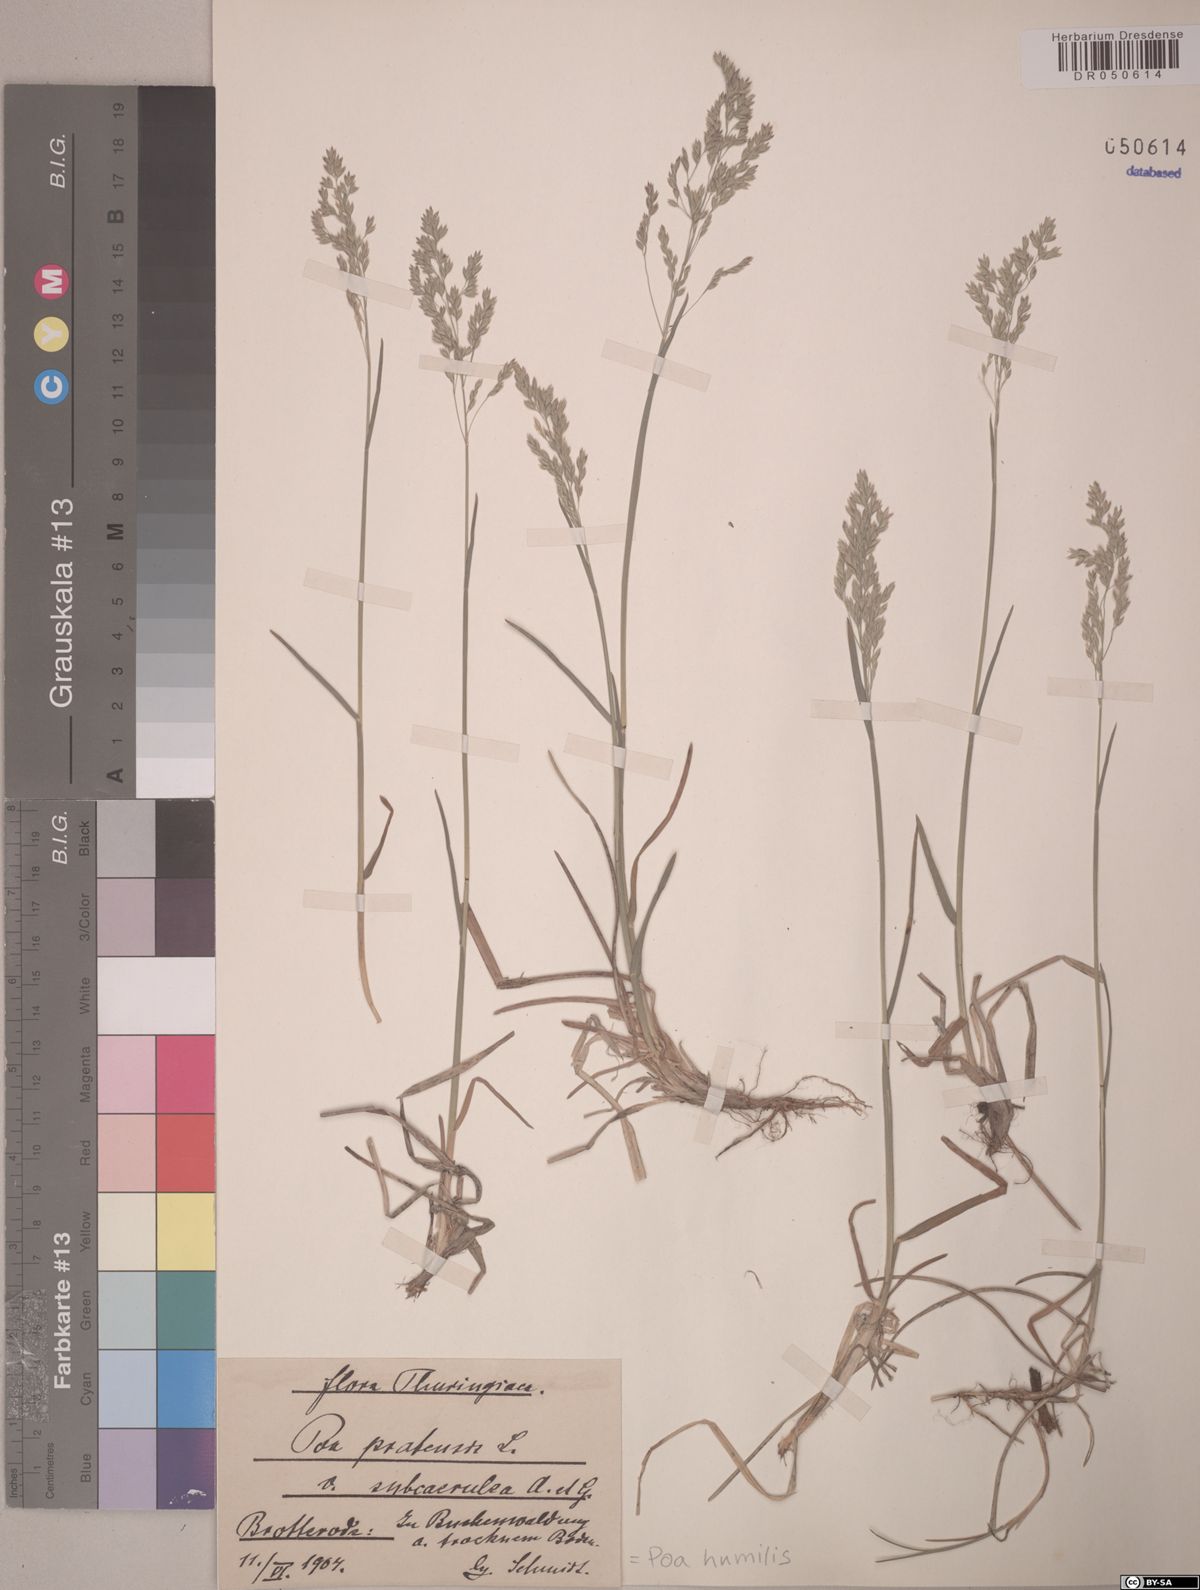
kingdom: Plantae
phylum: Tracheophyta
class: Liliopsida
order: Poales
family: Poaceae
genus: Poa
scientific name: Poa humilis
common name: Spreading meadow-grass
